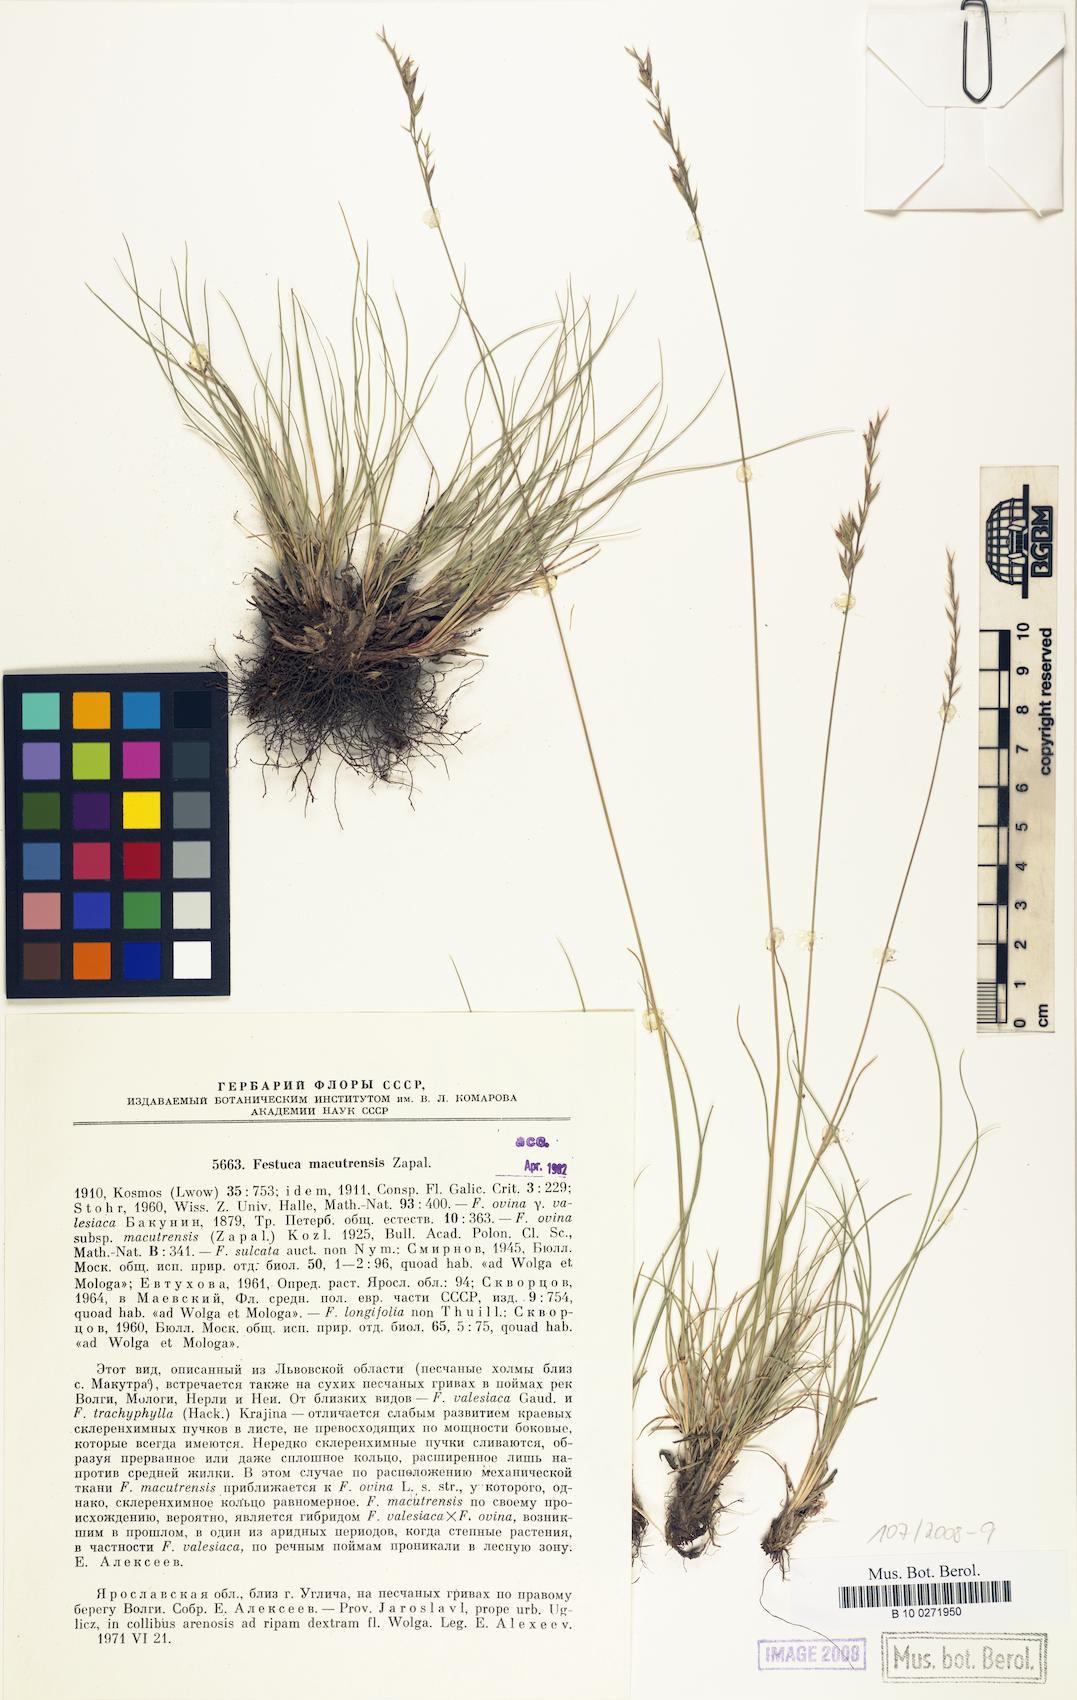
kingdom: Plantae
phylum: Tracheophyta
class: Liliopsida
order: Poales
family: Poaceae
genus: Festuca
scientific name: Festuca macutrensis
